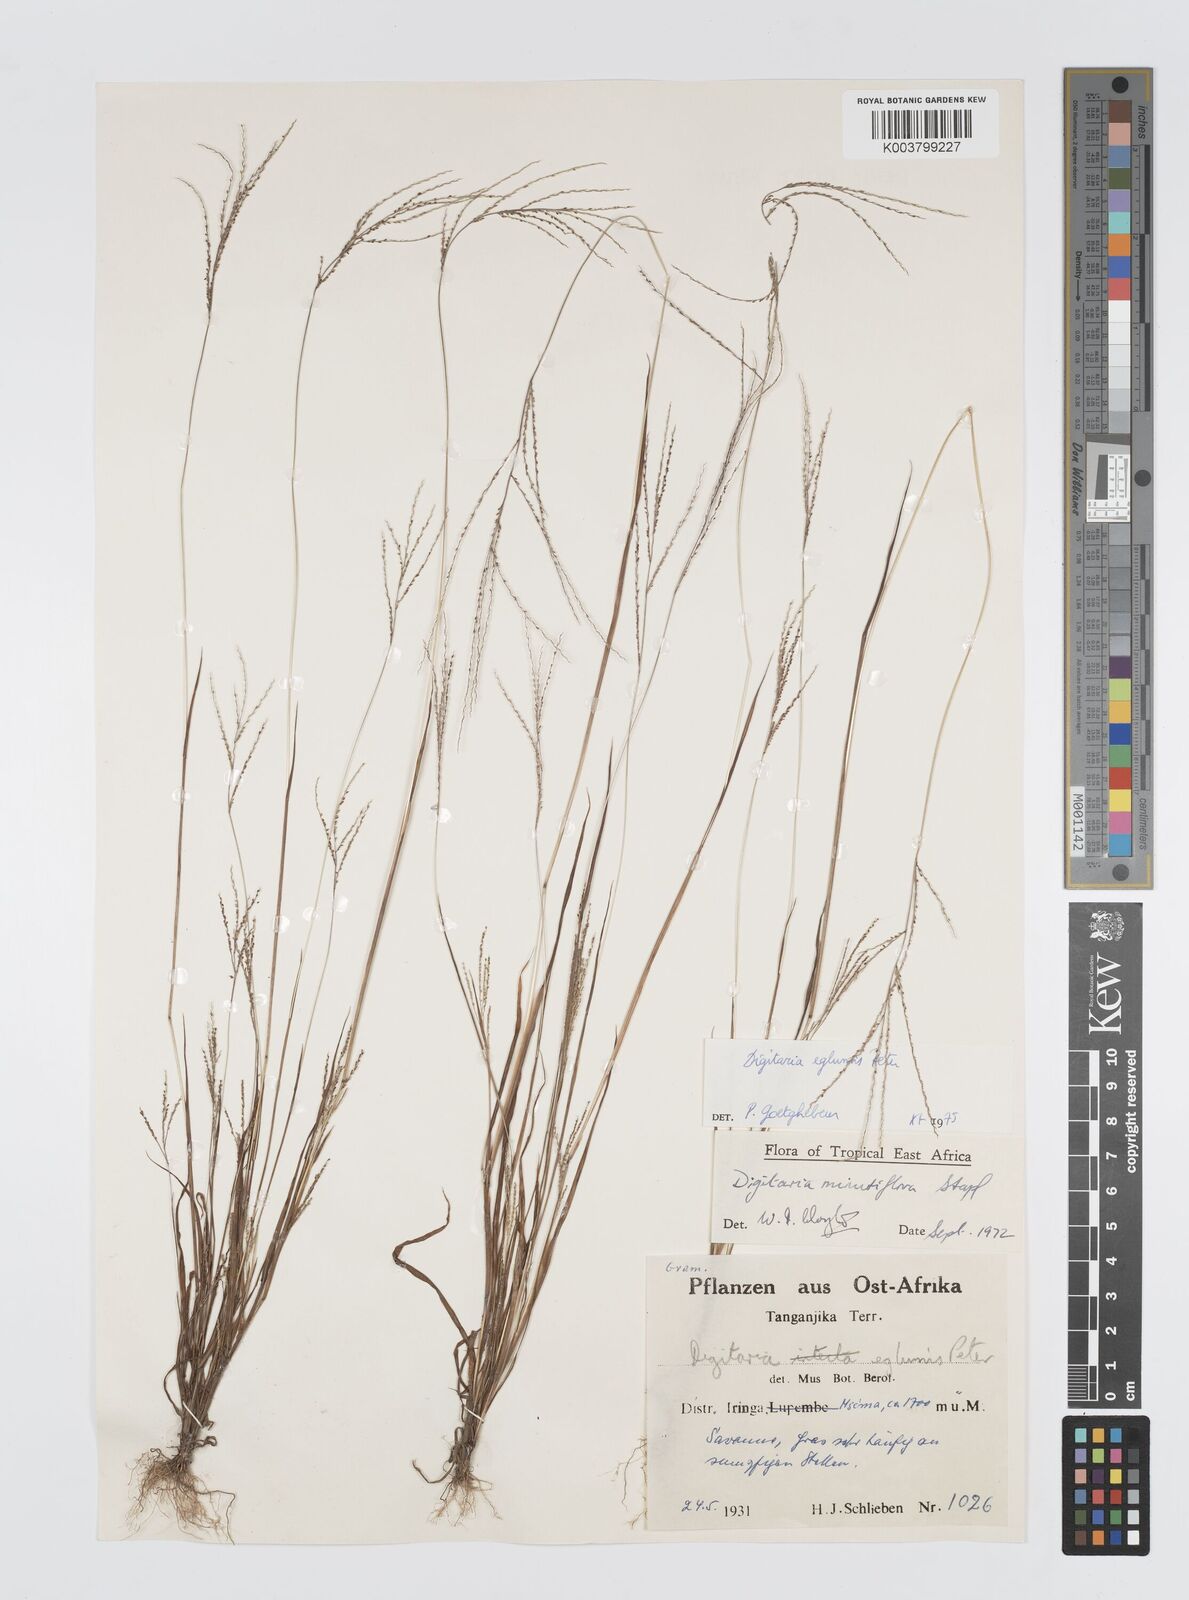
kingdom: Plantae
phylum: Tracheophyta
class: Liliopsida
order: Poales
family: Poaceae
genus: Digitaria
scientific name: Digitaria pseudodiagonalis
